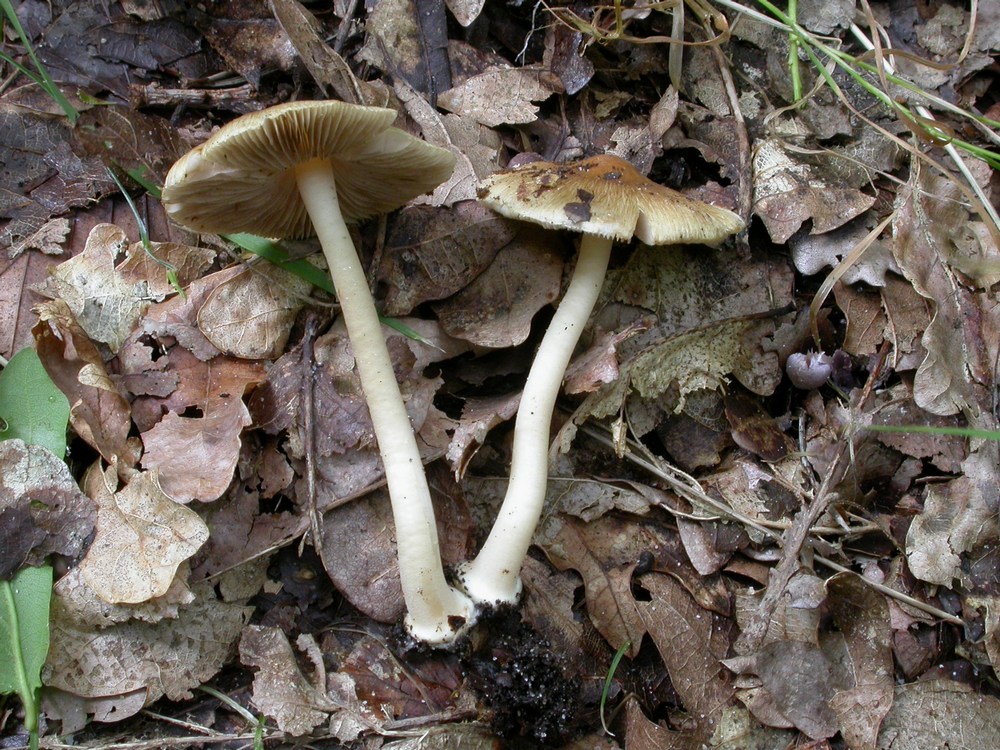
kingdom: Fungi
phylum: Basidiomycota
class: Agaricomycetes
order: Agaricales
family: Inocybaceae
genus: Inocybe
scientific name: Inocybe mixtilis
